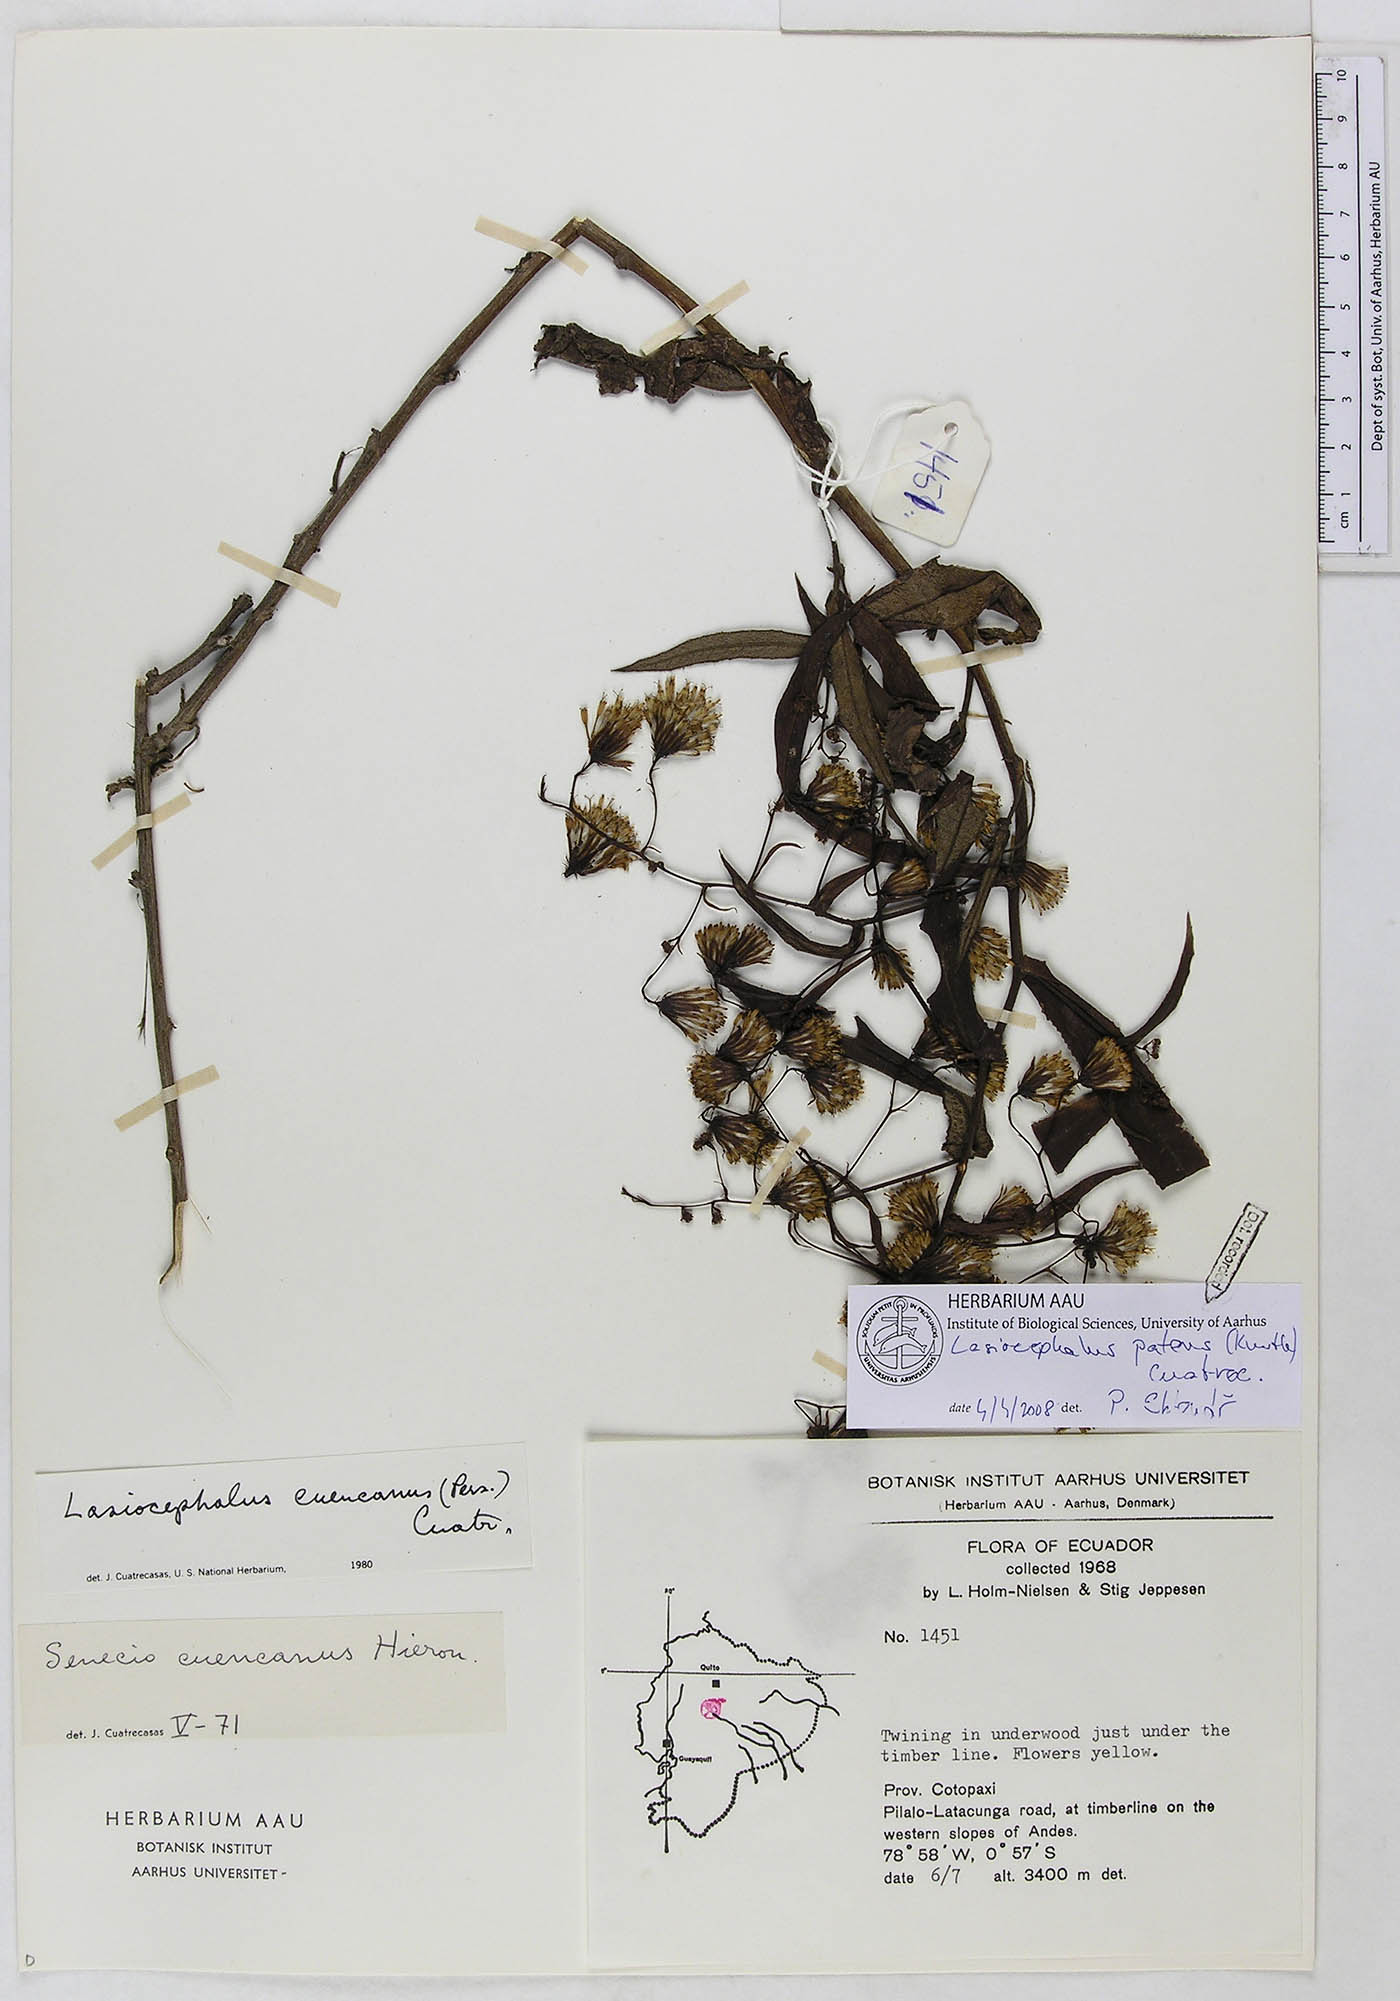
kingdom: Plantae
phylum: Tracheophyta
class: Magnoliopsida
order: Asterales
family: Asteraceae
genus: Aetheolaena
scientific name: Aetheolaena patens
